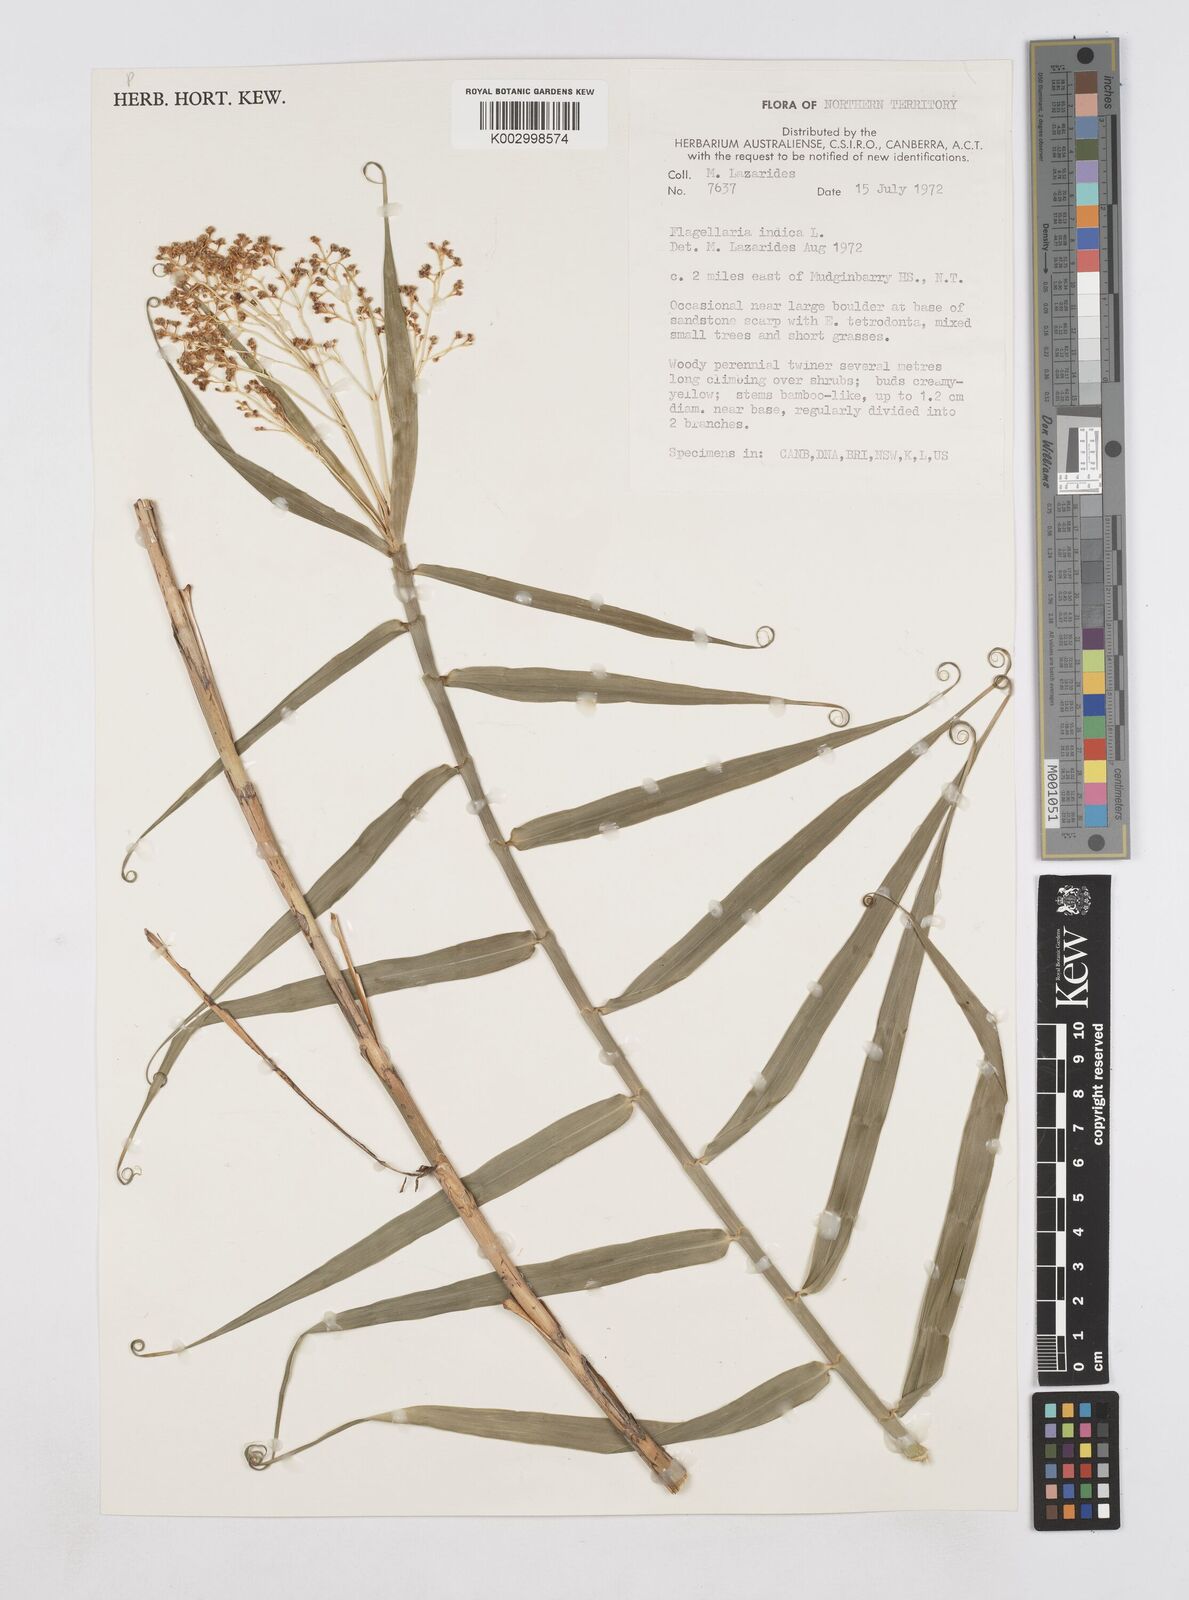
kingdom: Plantae
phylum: Tracheophyta
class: Liliopsida
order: Poales
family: Flagellariaceae
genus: Flagellaria
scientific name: Flagellaria indica
